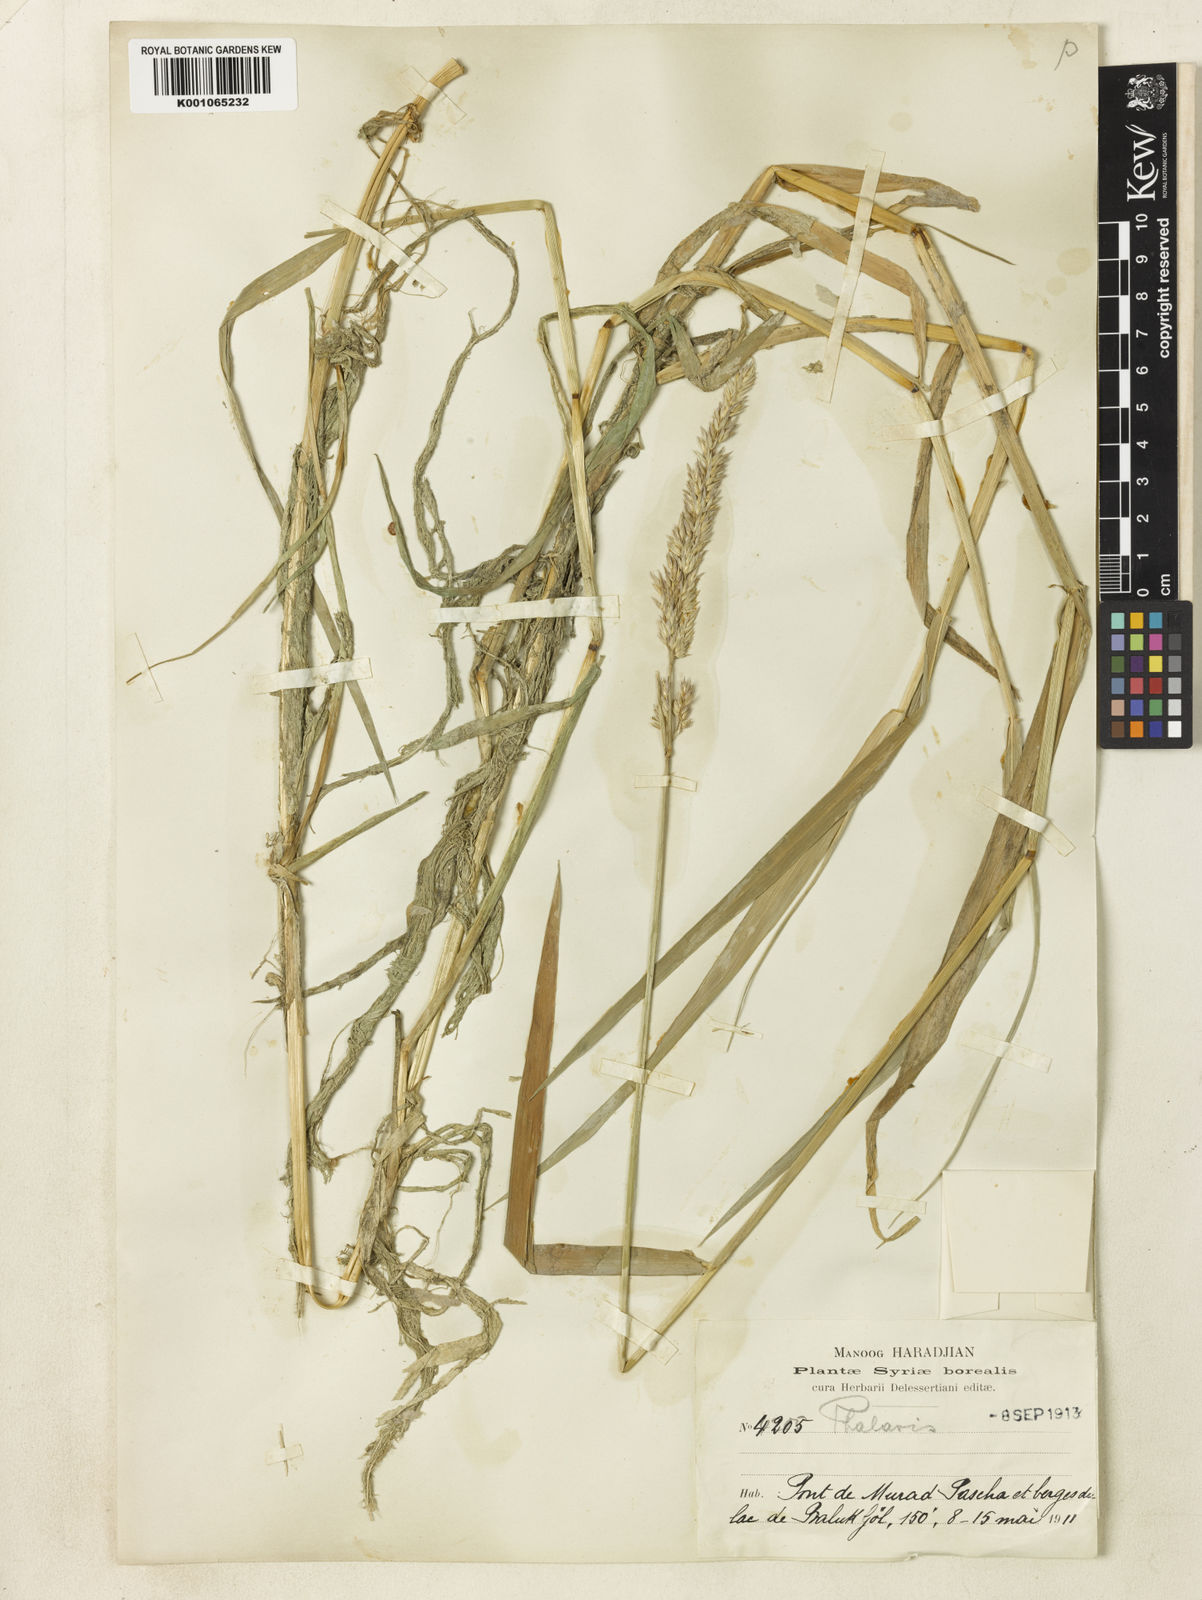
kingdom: Plantae
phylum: Tracheophyta
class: Liliopsida
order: Poales
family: Poaceae
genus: Phalaris
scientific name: Phalaris arundinacea
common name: Reed canary-grass
